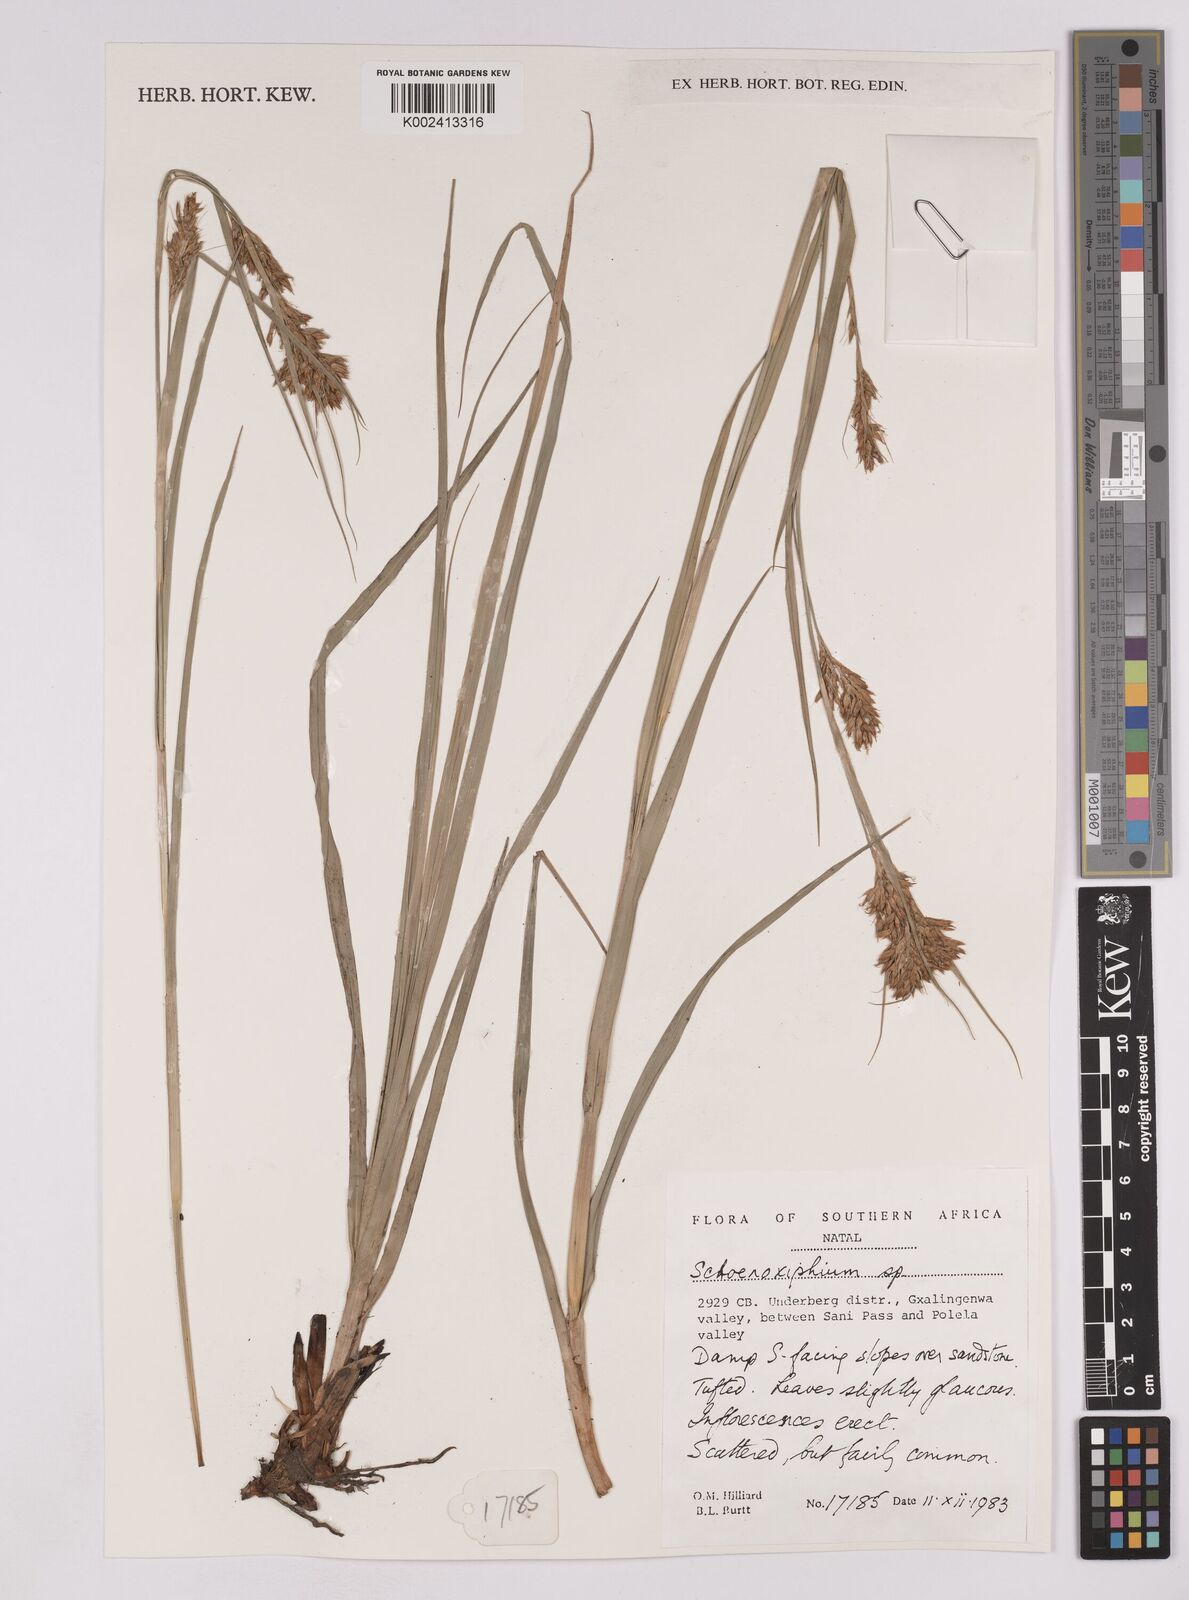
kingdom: Plantae
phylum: Tracheophyta
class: Liliopsida
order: Poales
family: Cyperaceae
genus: Carex
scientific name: Carex
